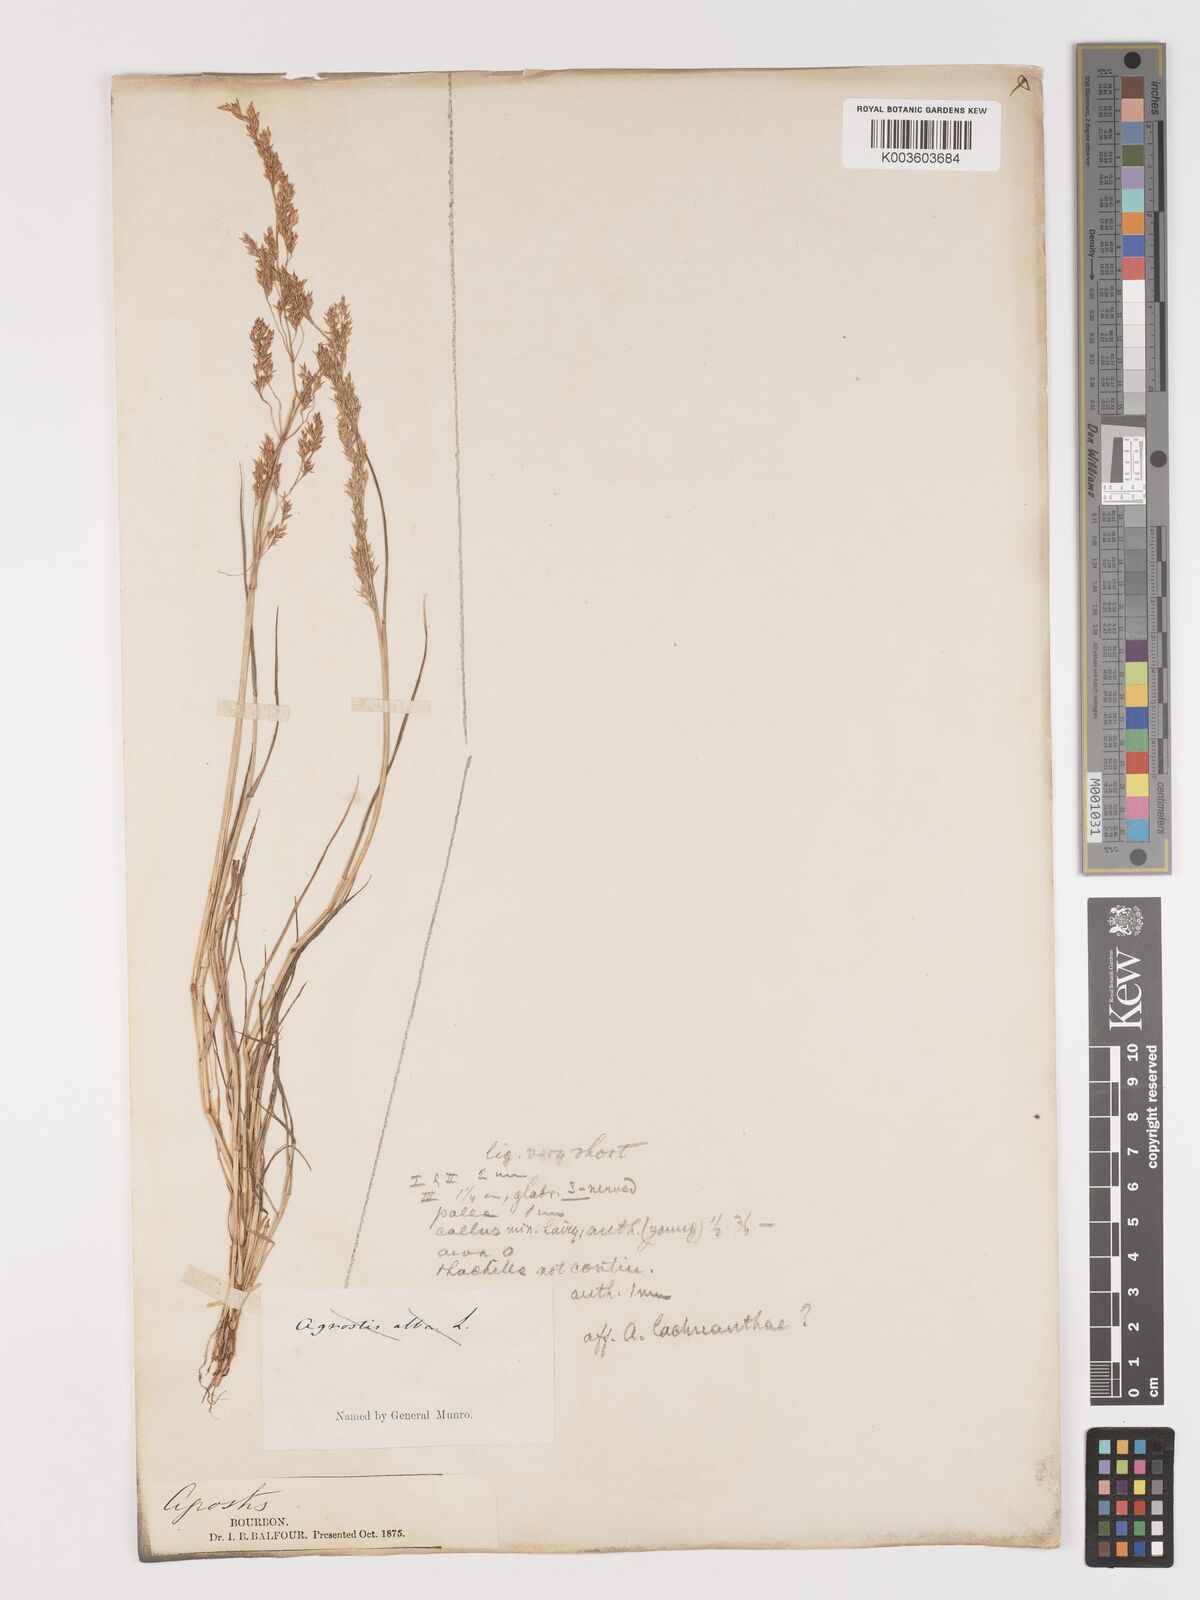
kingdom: Plantae
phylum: Tracheophyta
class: Liliopsida
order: Poales
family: Poaceae
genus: Agrostis
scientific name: Agrostis capillaris
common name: Colonial bentgrass
